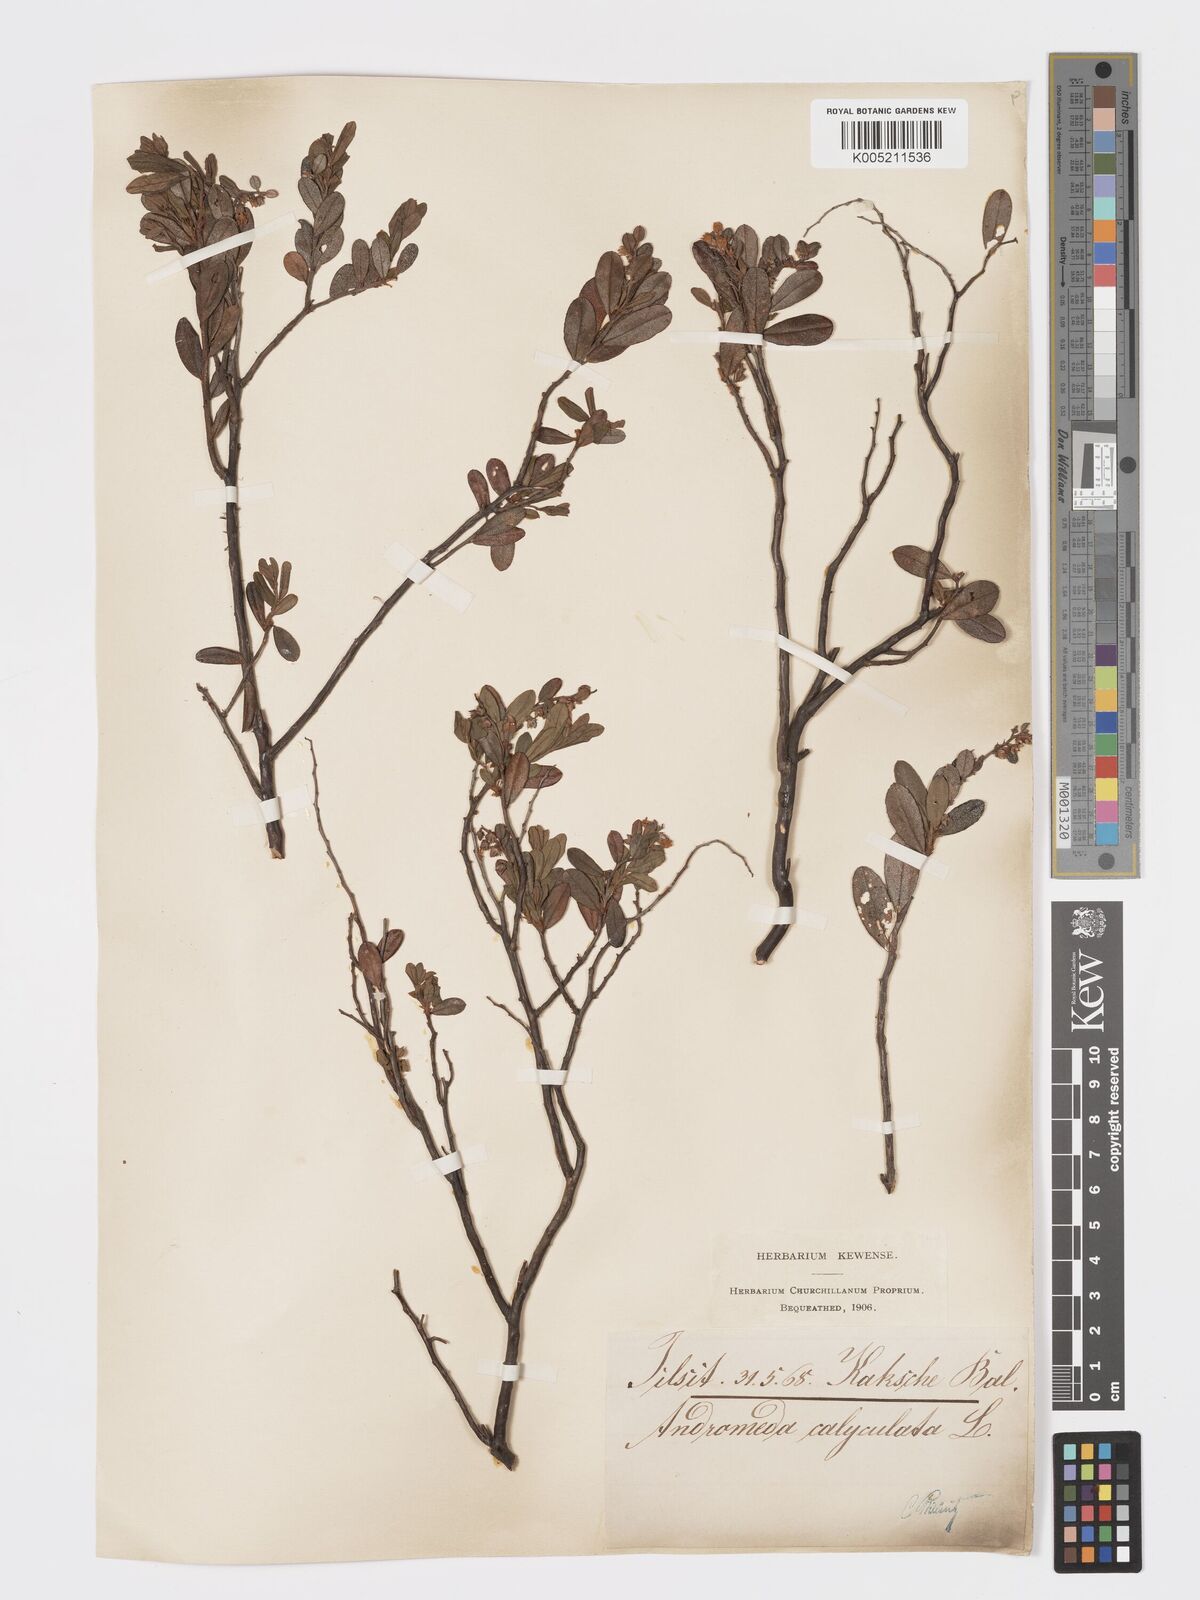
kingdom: Plantae
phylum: Tracheophyta
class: Magnoliopsida
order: Ericales
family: Ericaceae
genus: Chamaedaphne
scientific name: Chamaedaphne calyculata
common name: Leatherleaf
